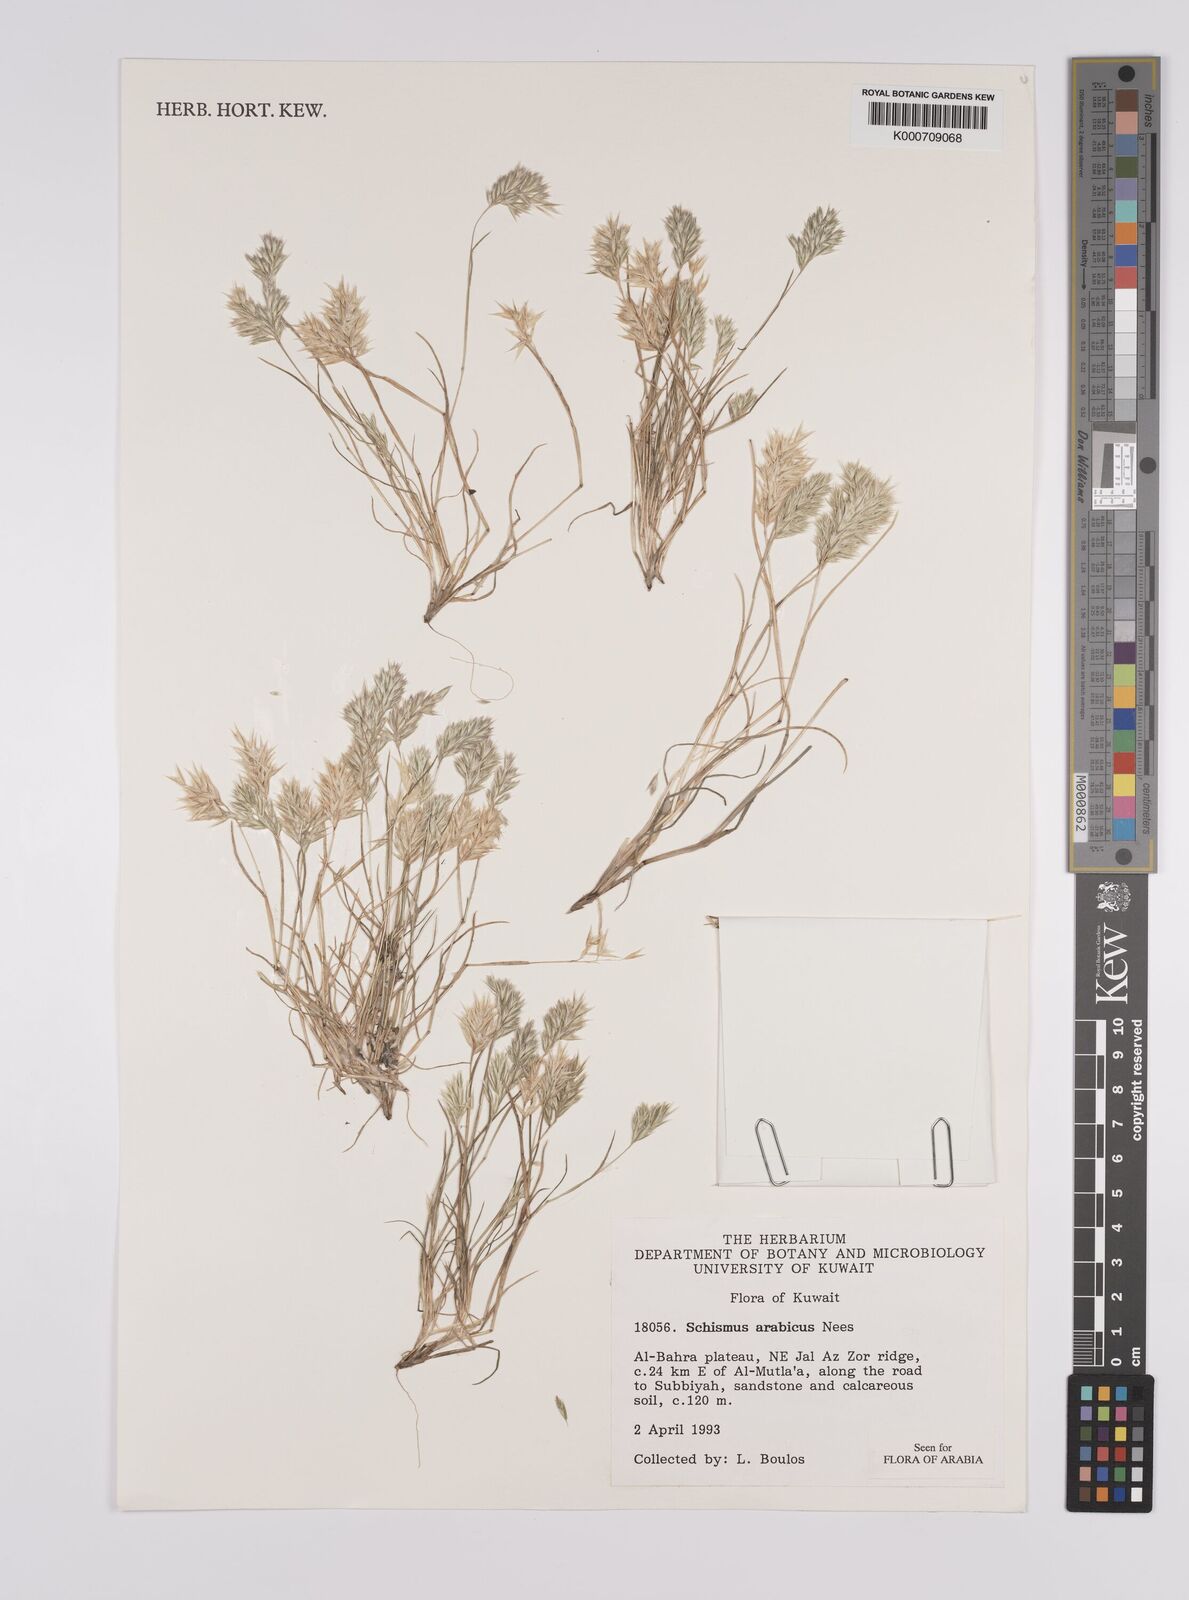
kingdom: Plantae
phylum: Tracheophyta
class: Liliopsida
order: Poales
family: Poaceae
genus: Schismus
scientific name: Schismus arabicus
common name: Arabian schismus
